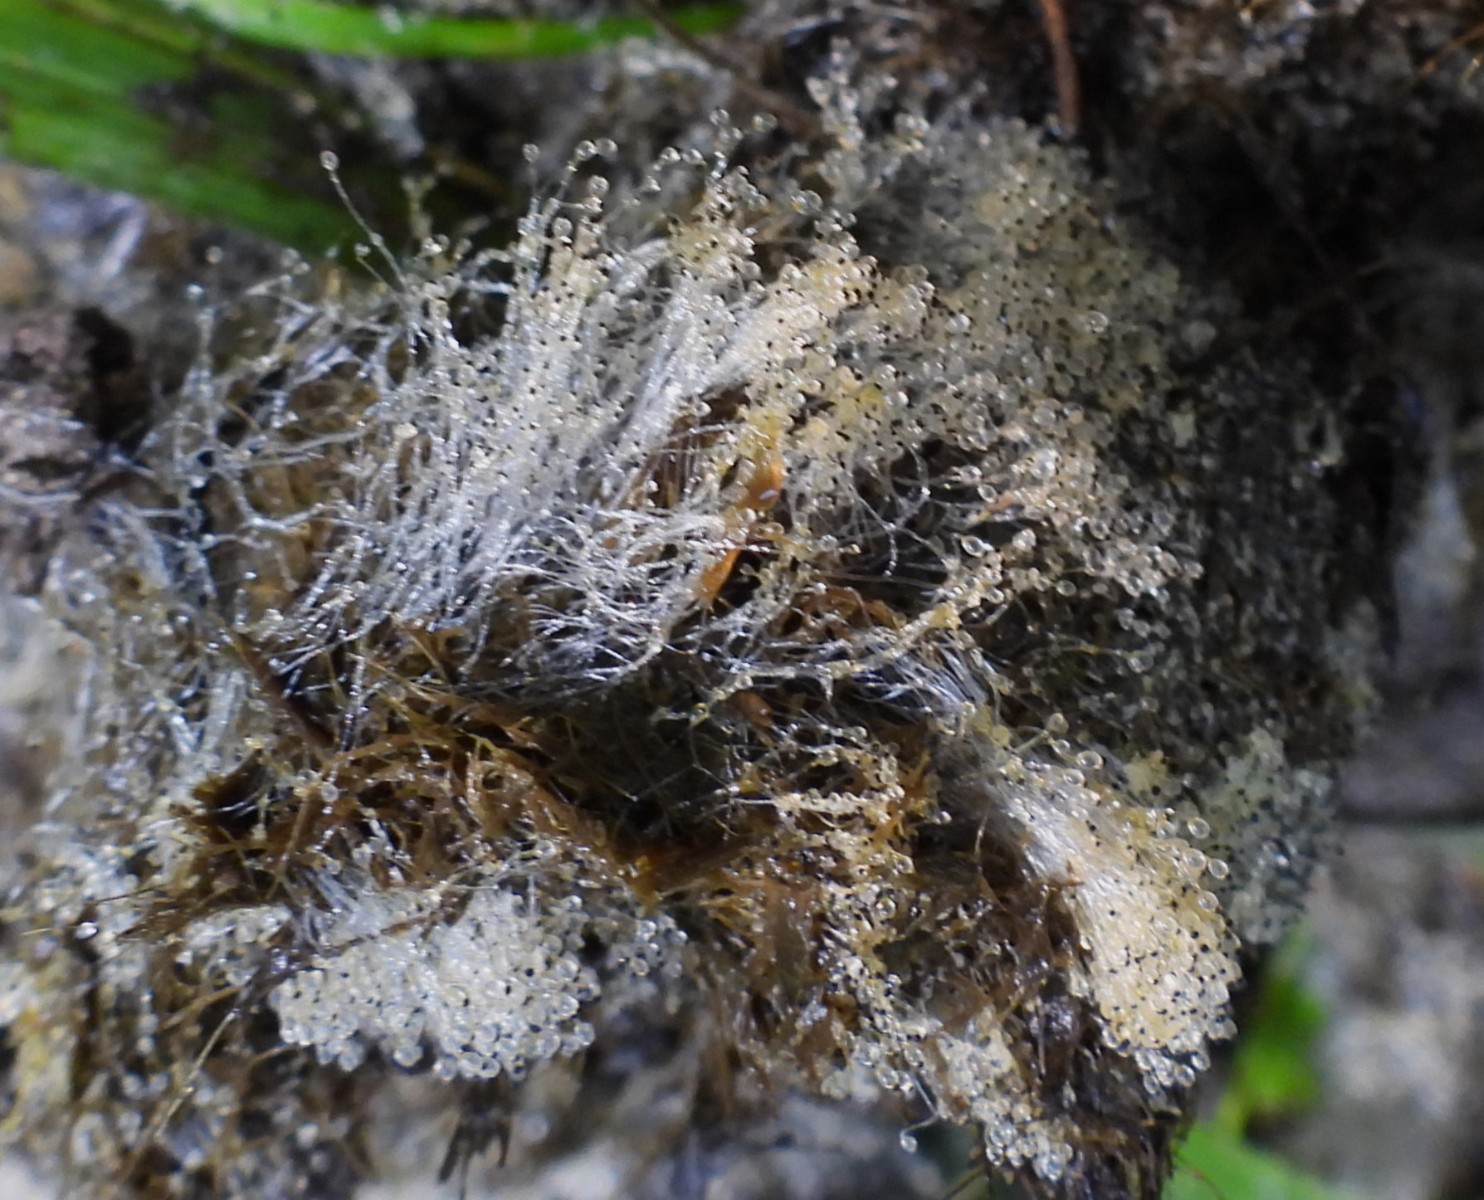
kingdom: Fungi
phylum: Mucoromycota
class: Mucoromycetes
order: Mucorales
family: Pilobolaceae
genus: Pilobolus
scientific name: Pilobolus
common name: boldkaster
